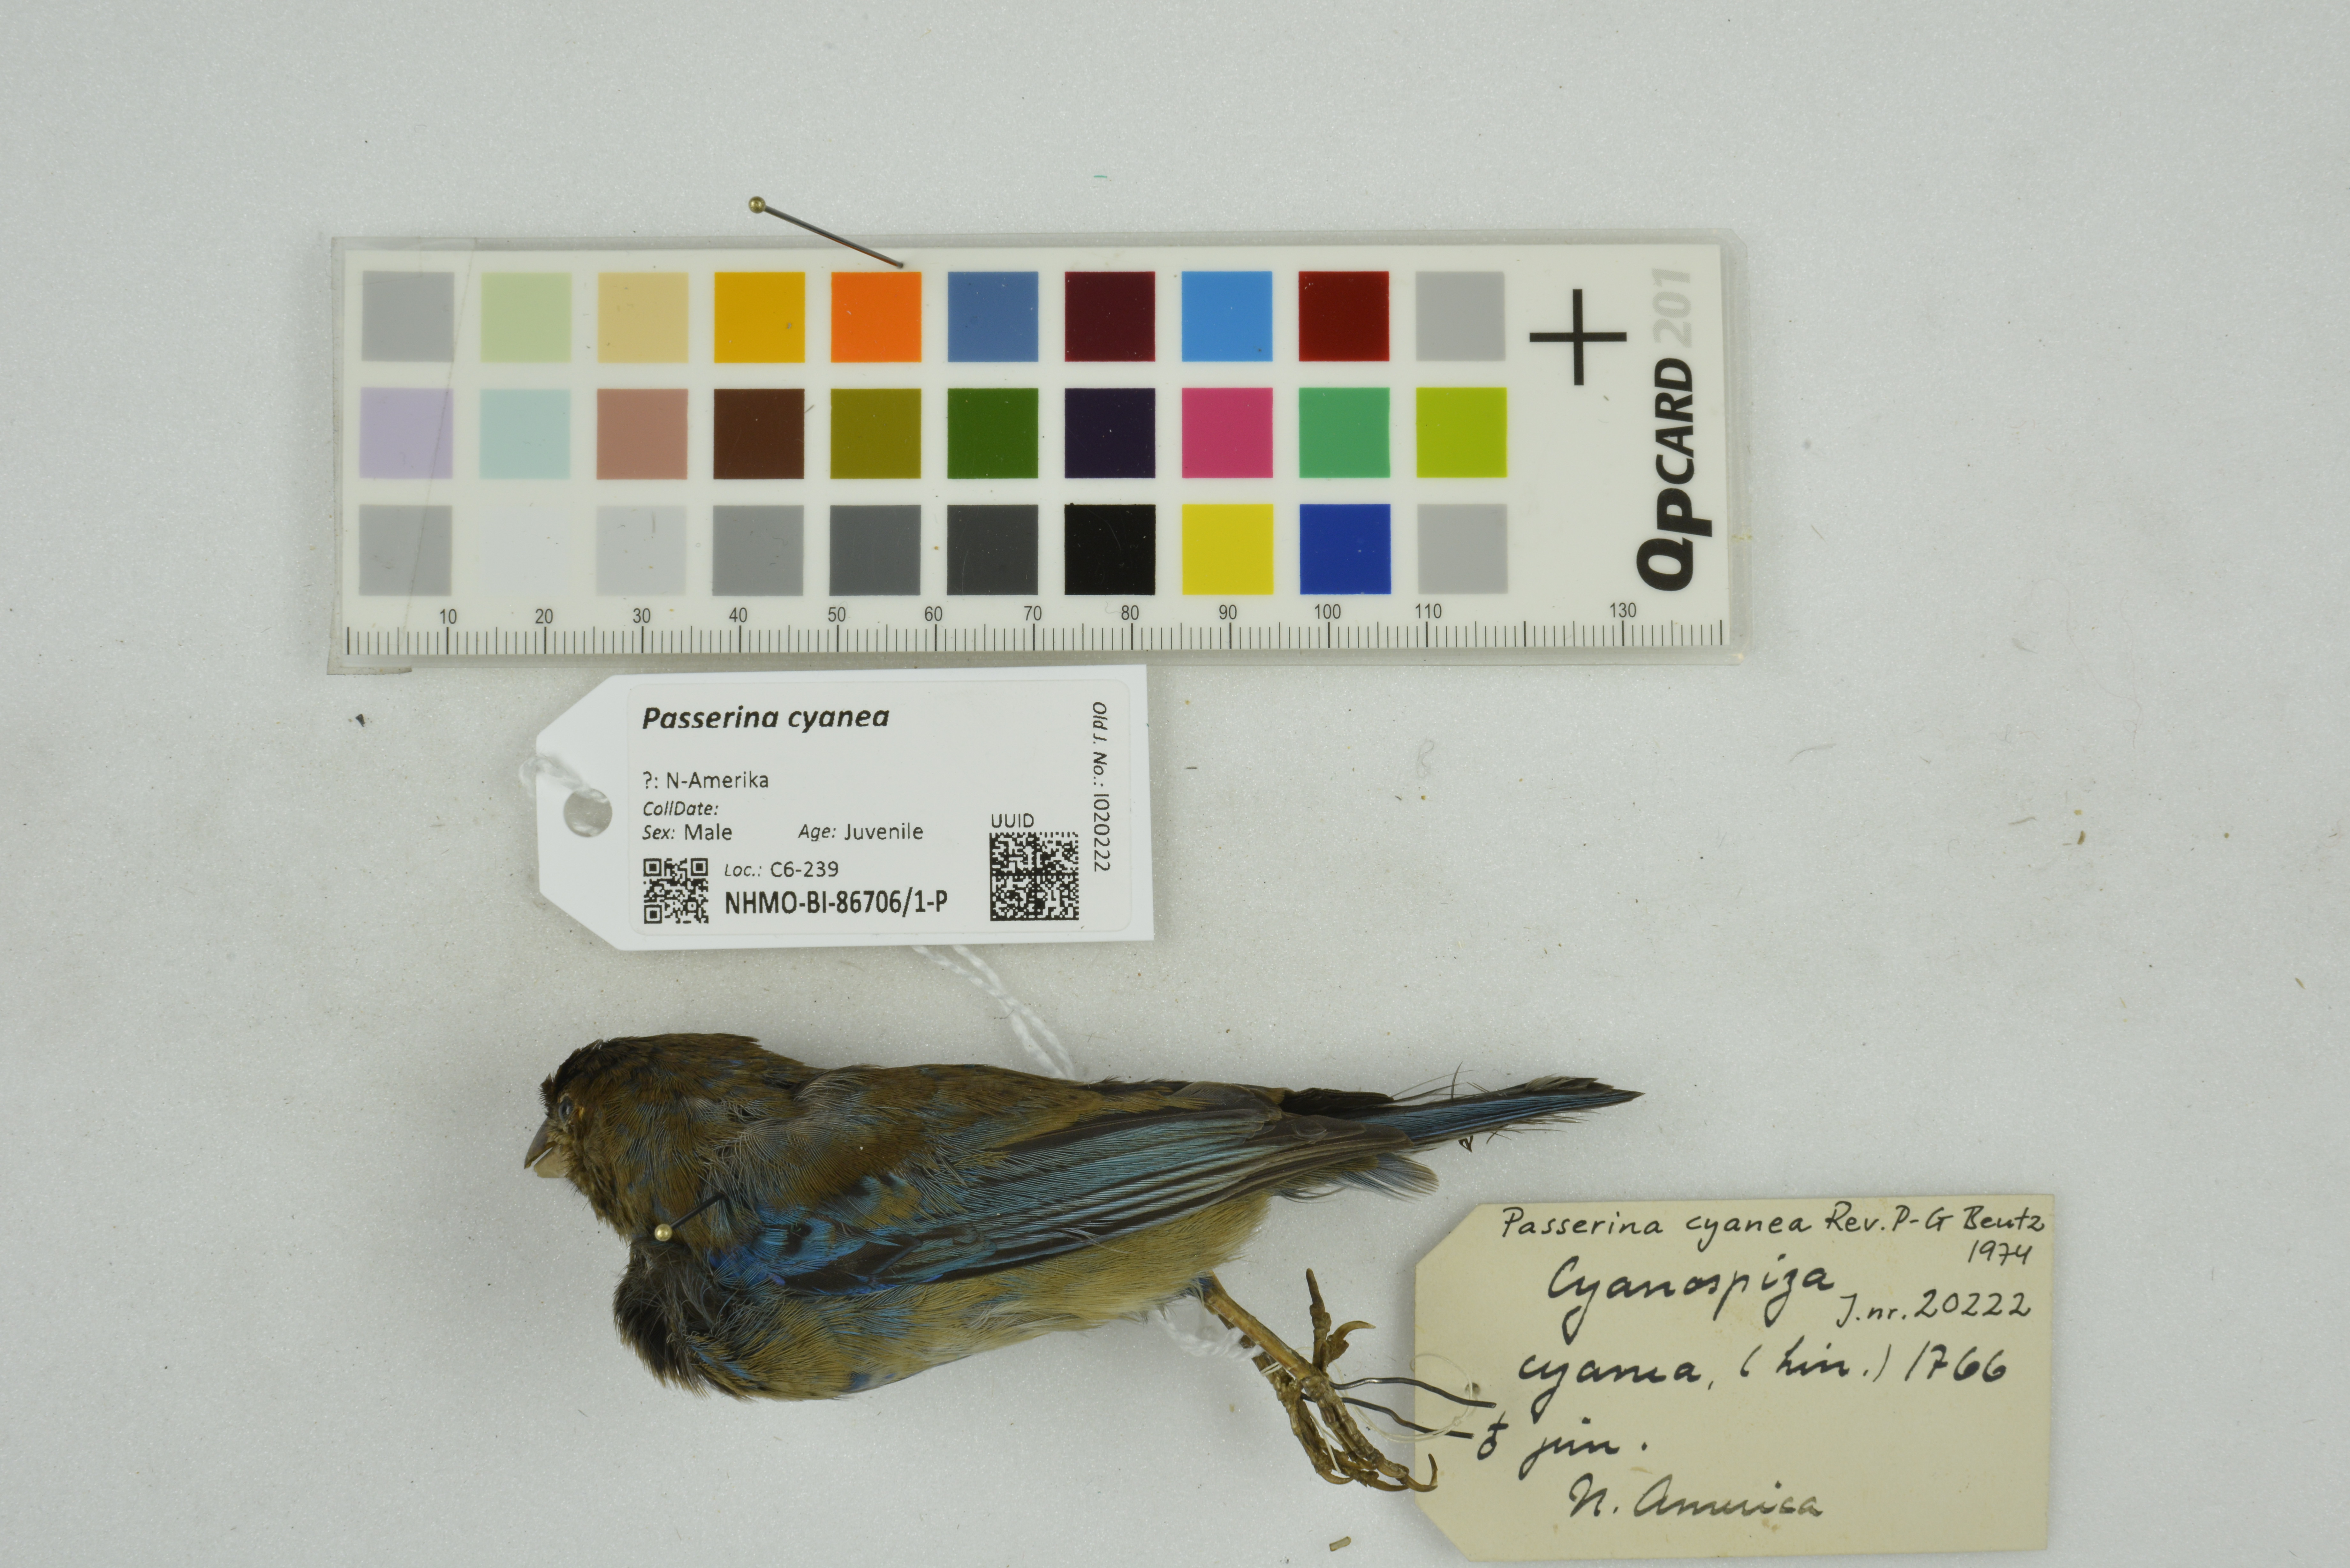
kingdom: Animalia
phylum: Chordata
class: Aves
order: Passeriformes
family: Cardinalidae
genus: Passerina
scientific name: Passerina cyanea
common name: Indigo bunting
